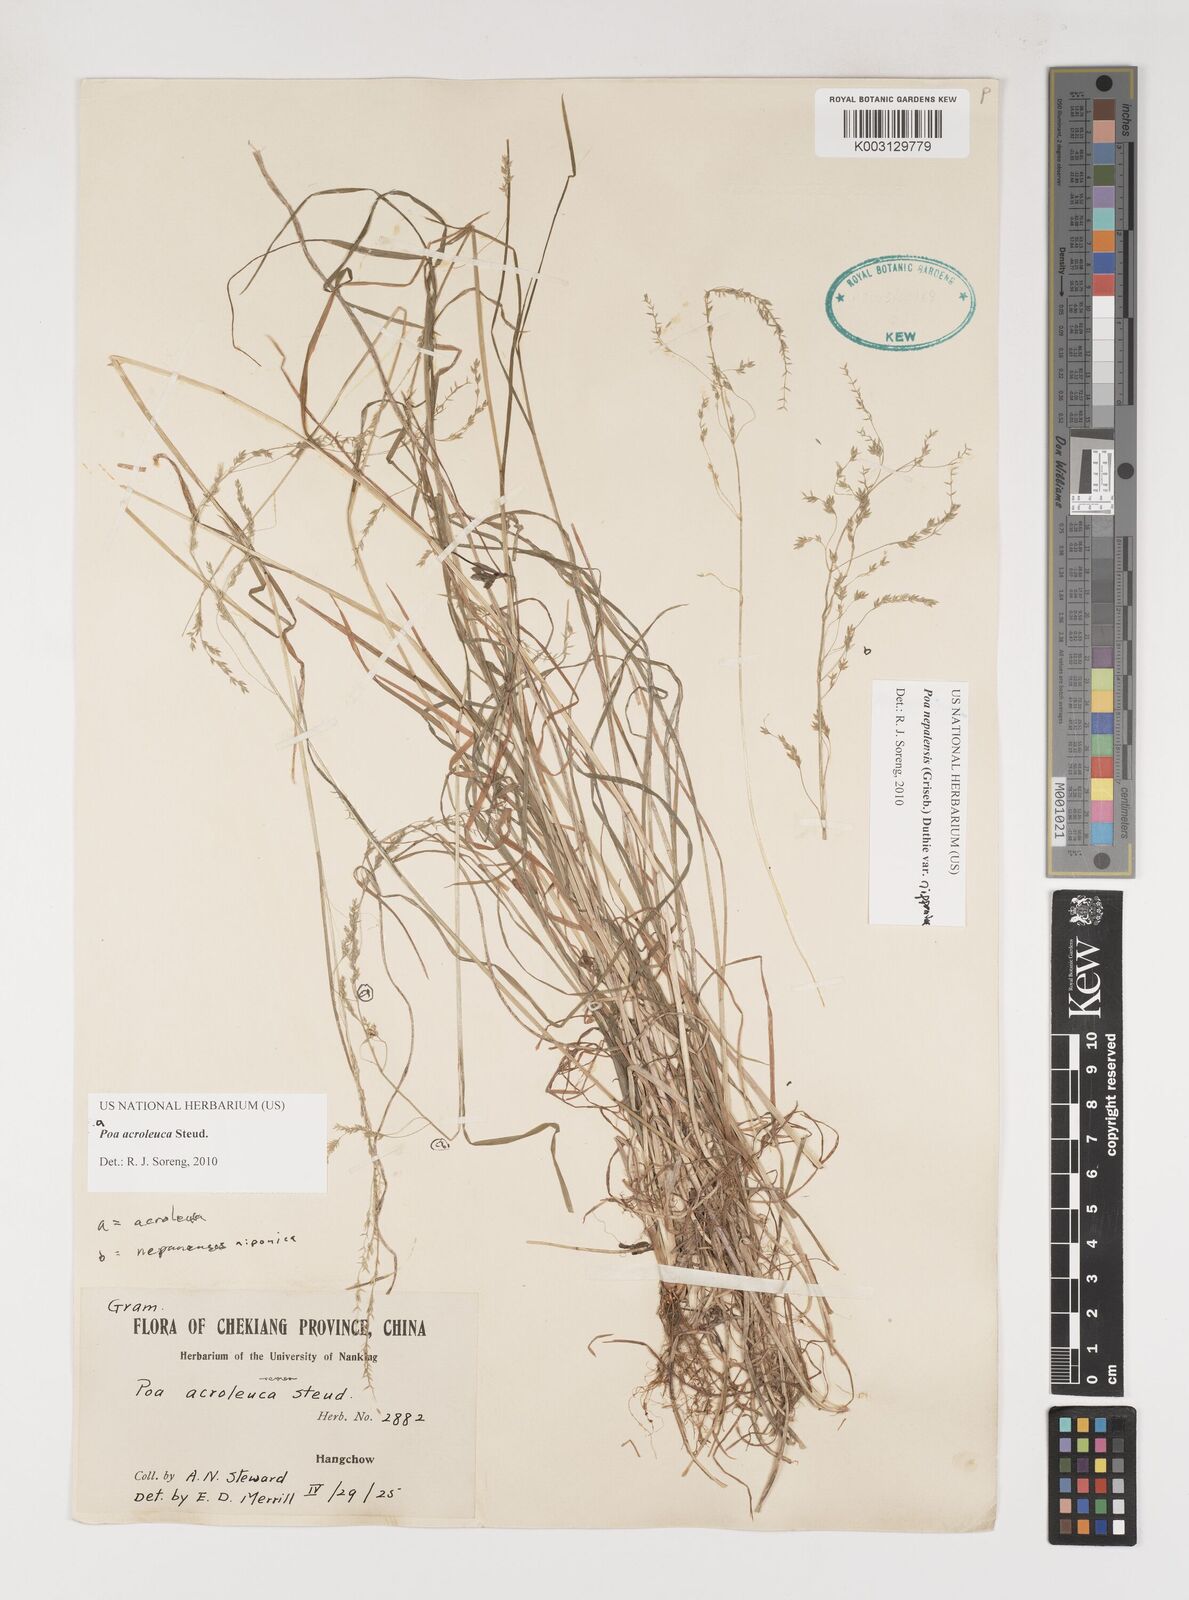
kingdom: Plantae
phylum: Tracheophyta
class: Liliopsida
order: Poales
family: Poaceae
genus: Poa
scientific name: Poa acroleuca
